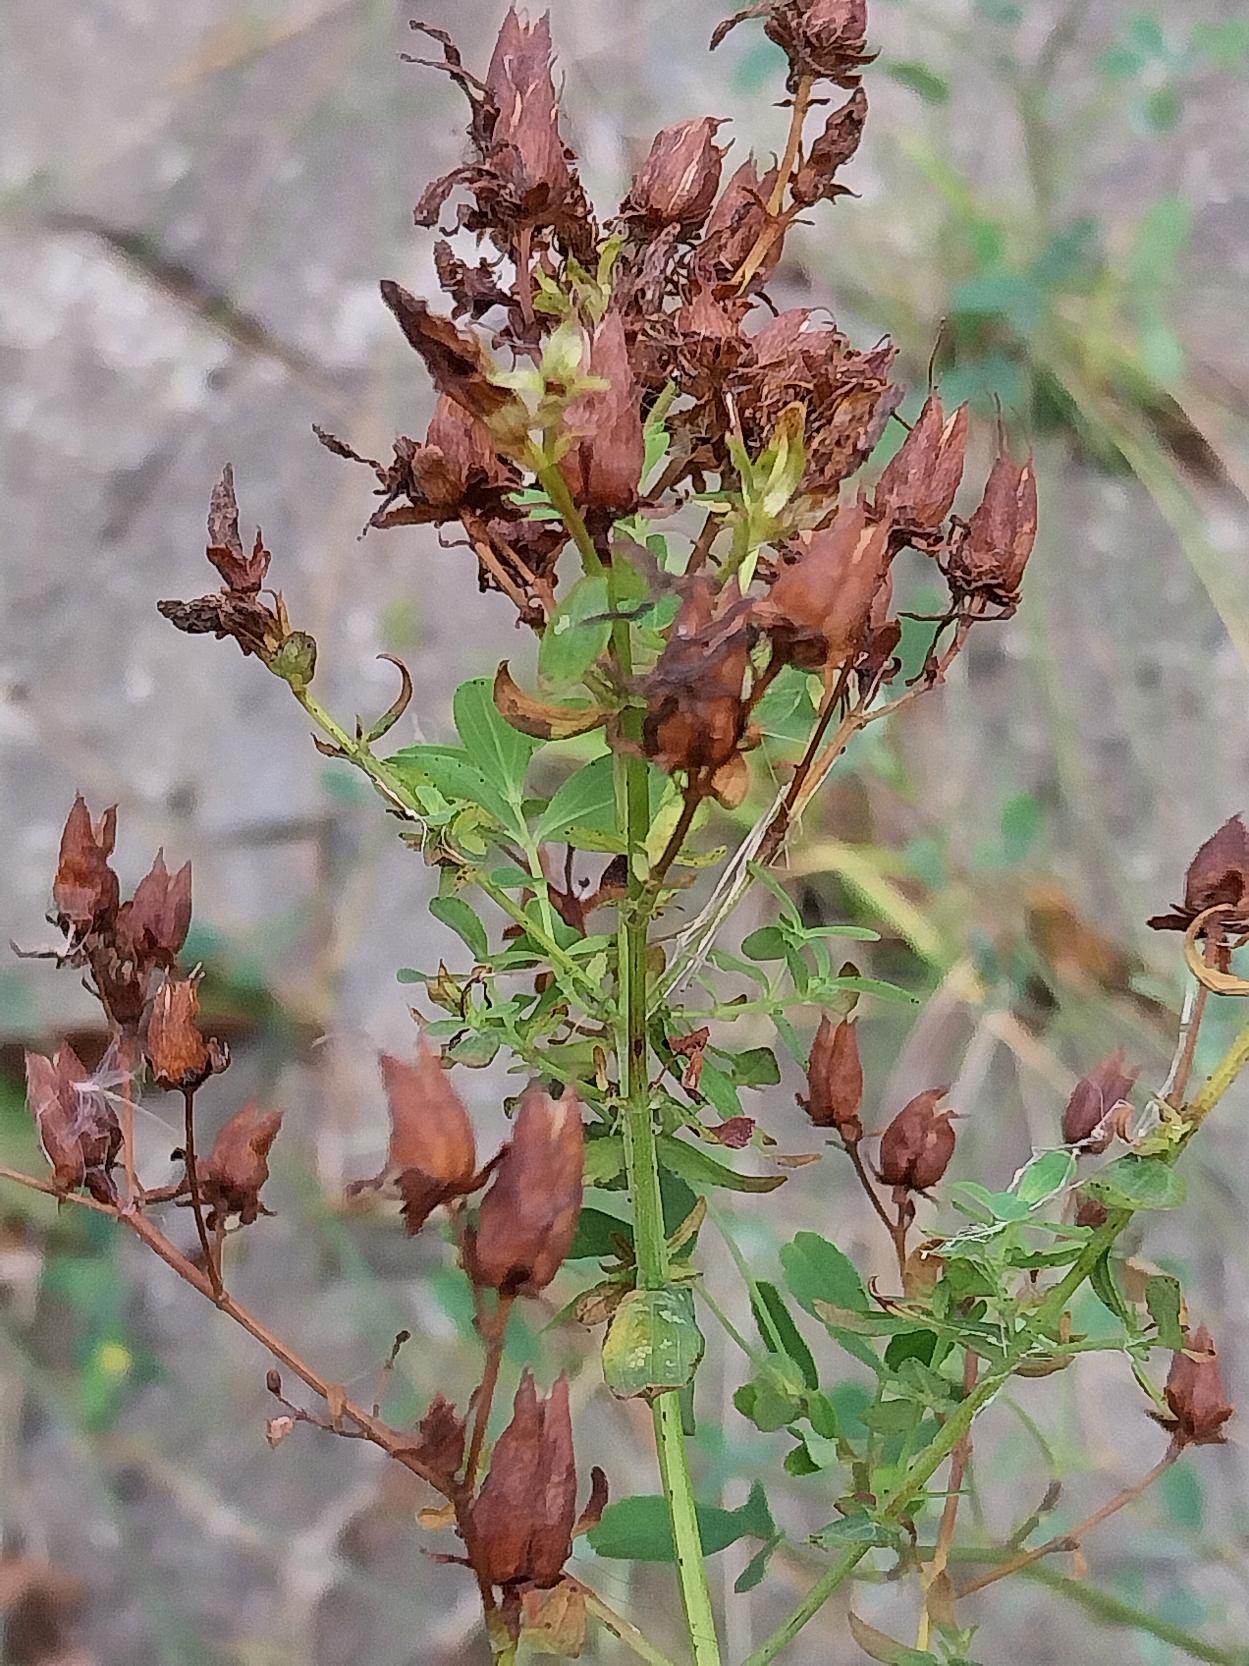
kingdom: Plantae
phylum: Tracheophyta
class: Magnoliopsida
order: Malpighiales
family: Hypericaceae
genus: Hypericum
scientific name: Hypericum perforatum
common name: Prikbladet perikon
